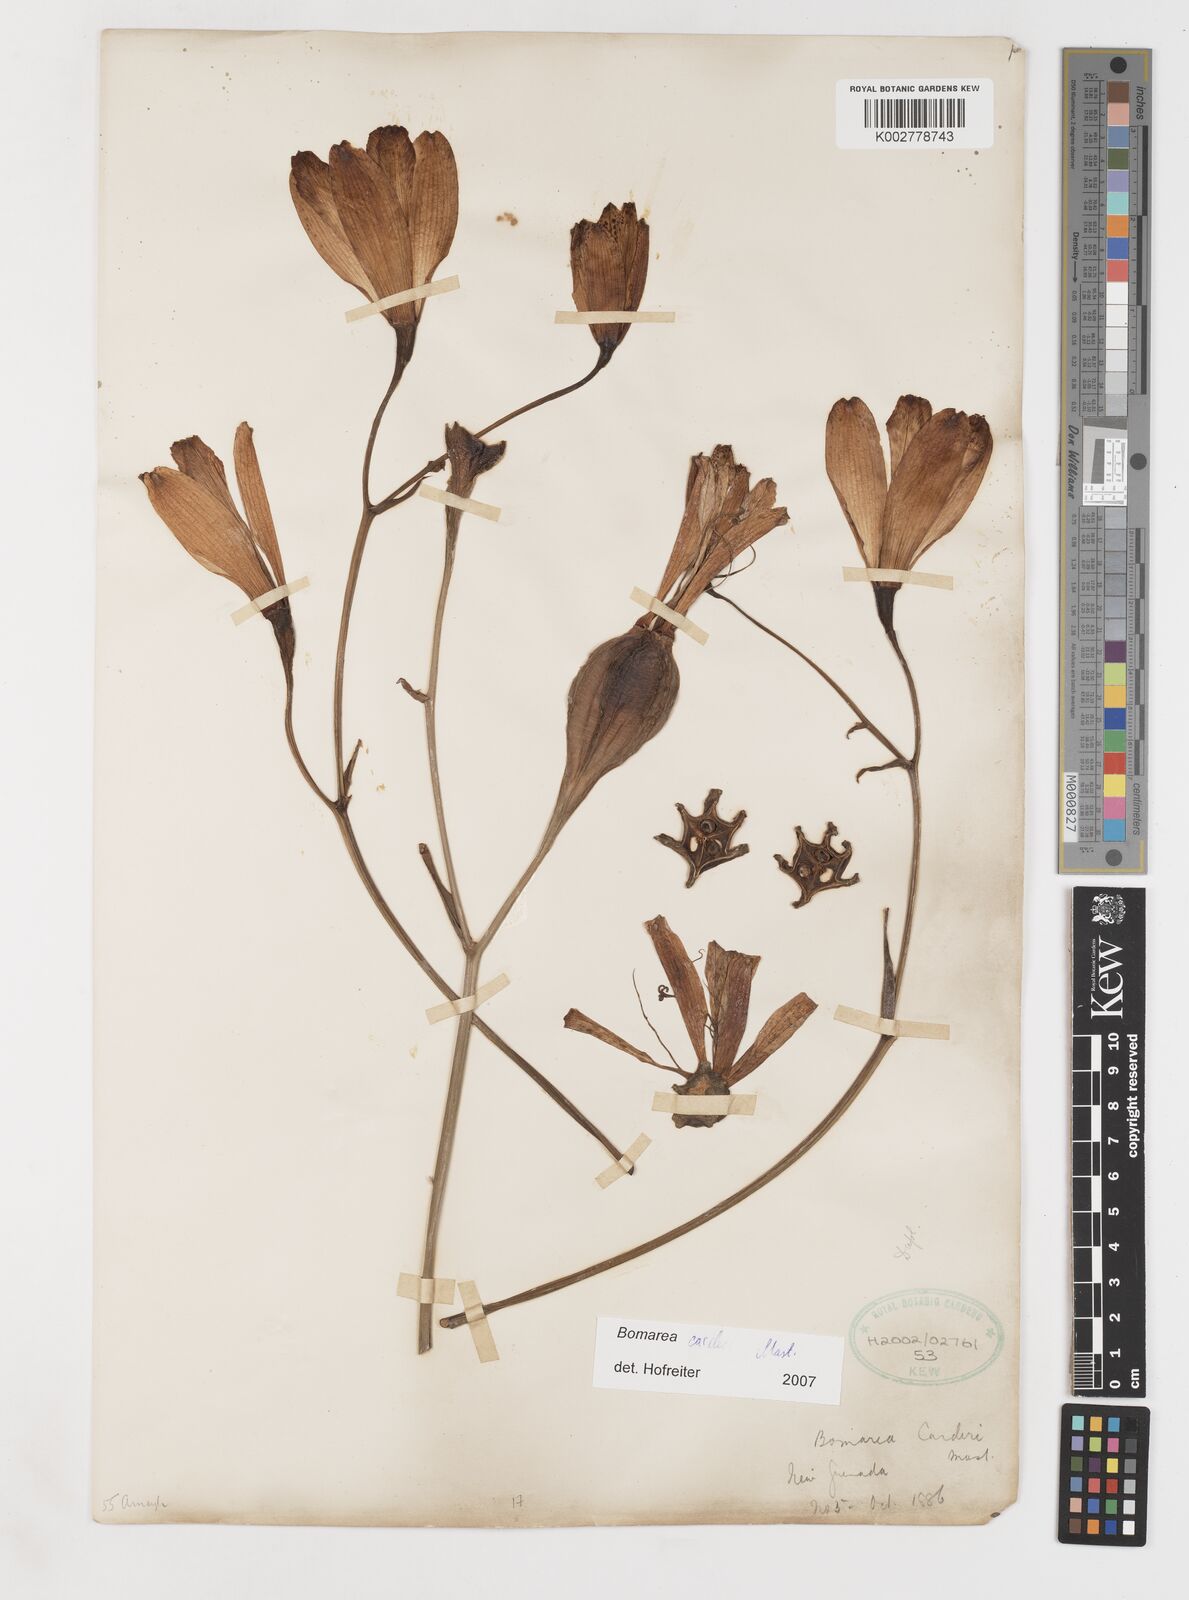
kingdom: Plantae
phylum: Tracheophyta
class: Liliopsida
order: Liliales
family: Alstroemeriaceae
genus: Bomarea
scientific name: Bomarea carderi
